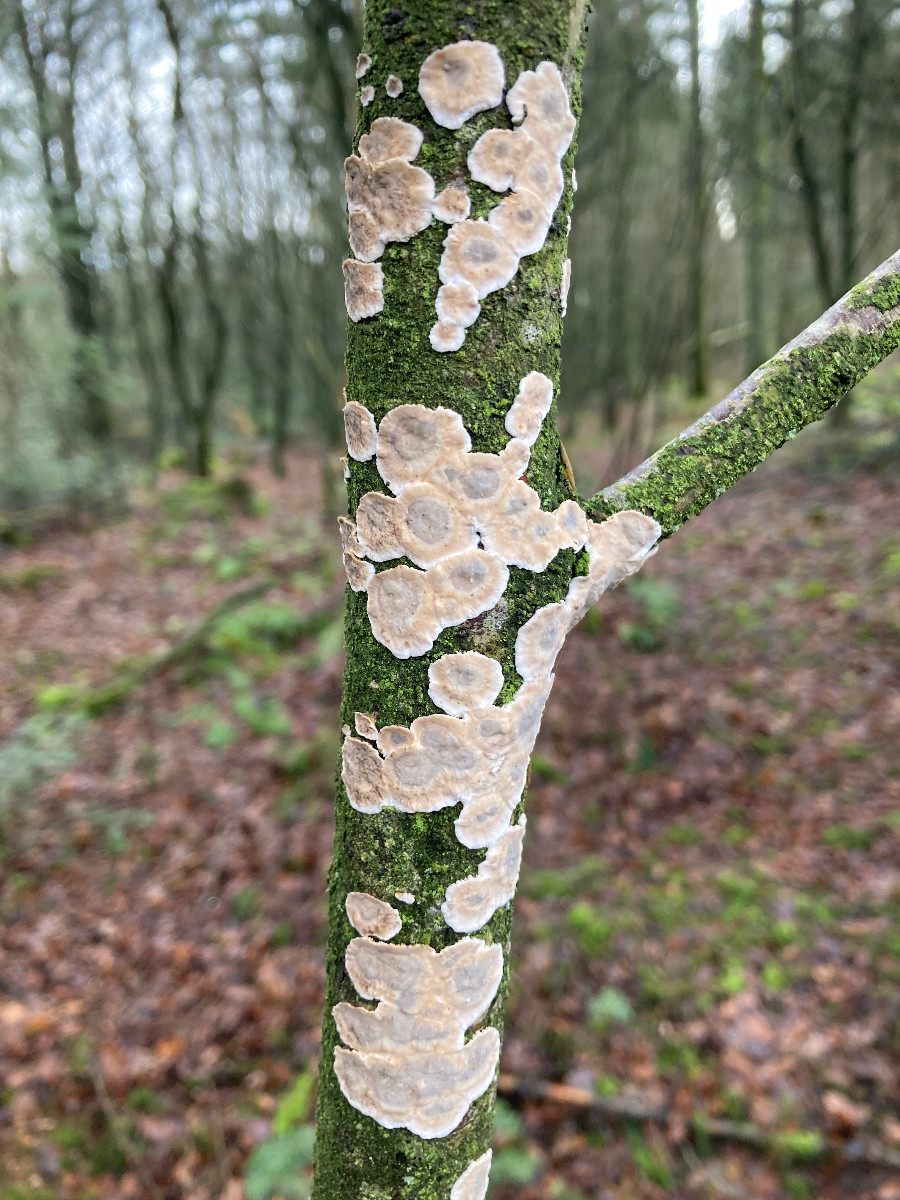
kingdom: Fungi
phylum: Basidiomycota
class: Agaricomycetes
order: Agaricales
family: Physalacriaceae
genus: Cylindrobasidium
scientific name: Cylindrobasidium evolvens
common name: sprækkehinde
